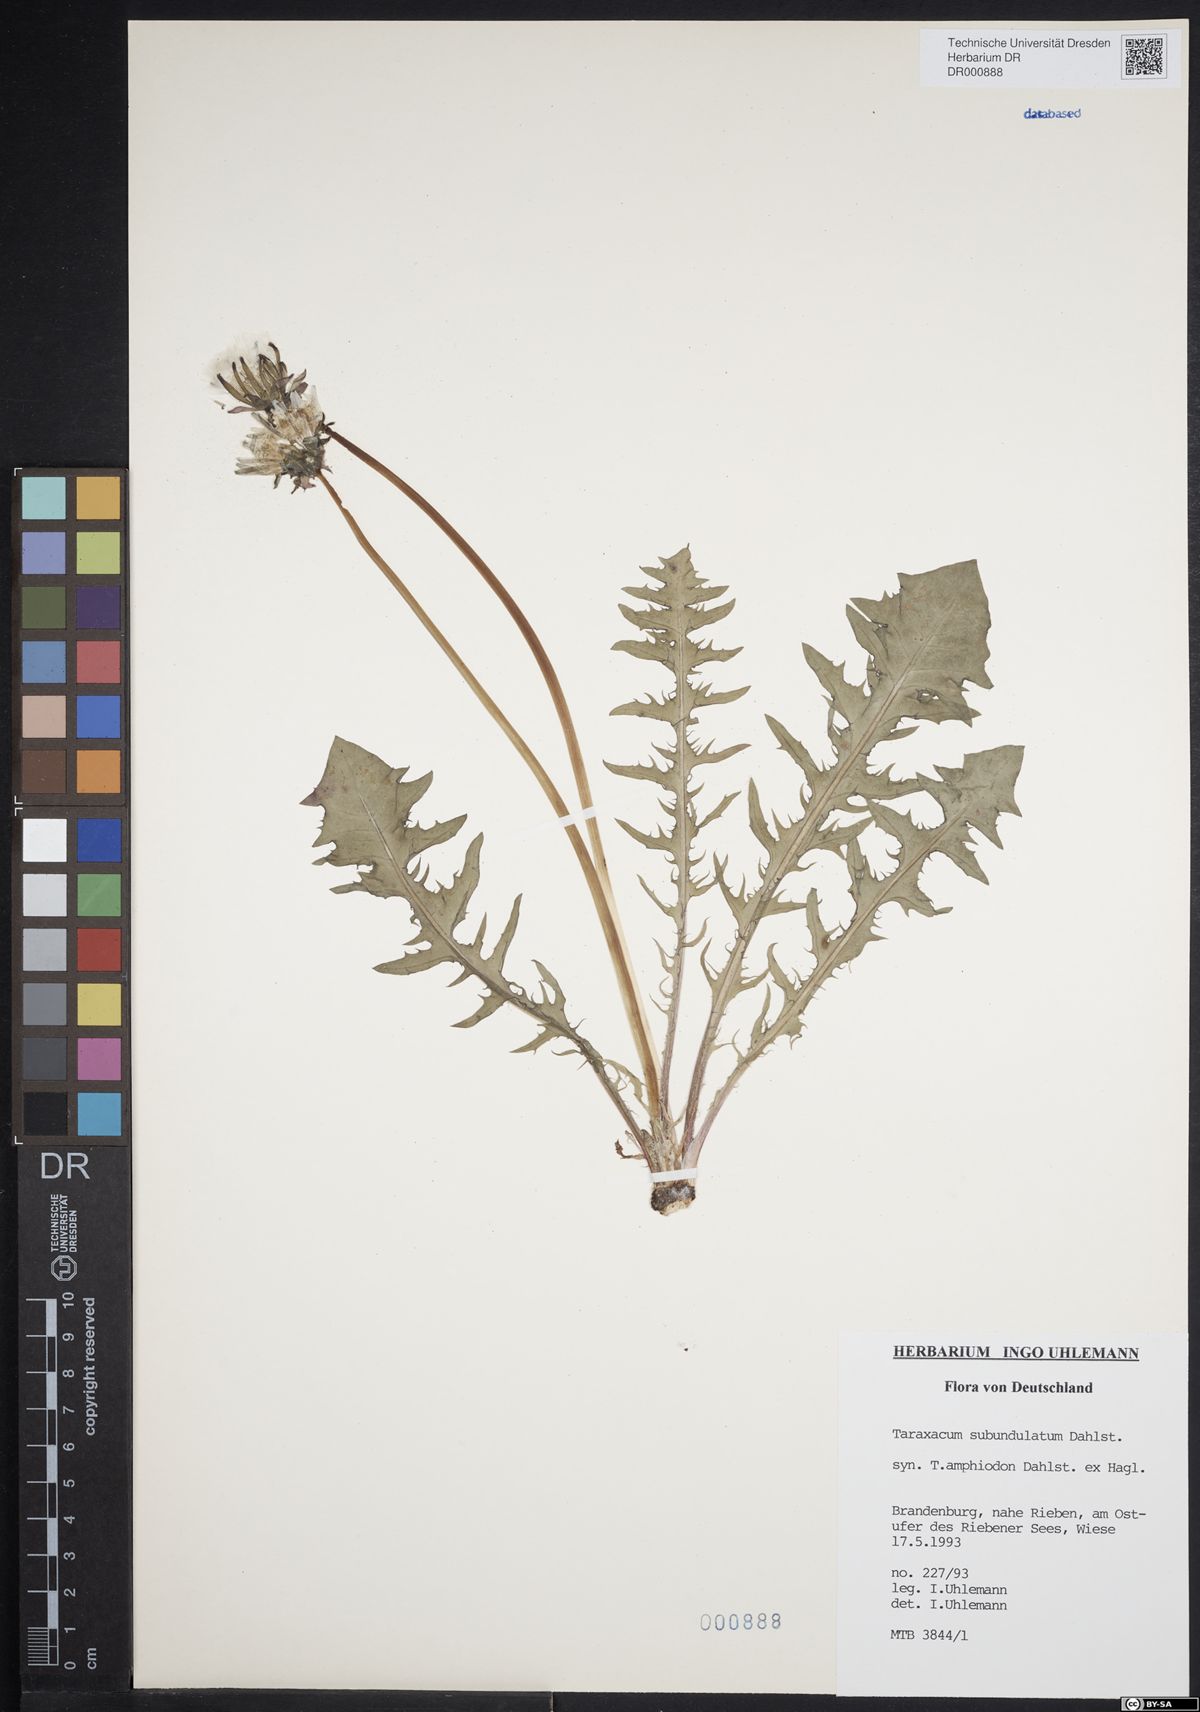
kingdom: Plantae
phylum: Tracheophyta
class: Magnoliopsida
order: Asterales
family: Asteraceae
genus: Taraxacum
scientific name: Taraxacum subundulatum
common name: Complex-leaved dandelion
